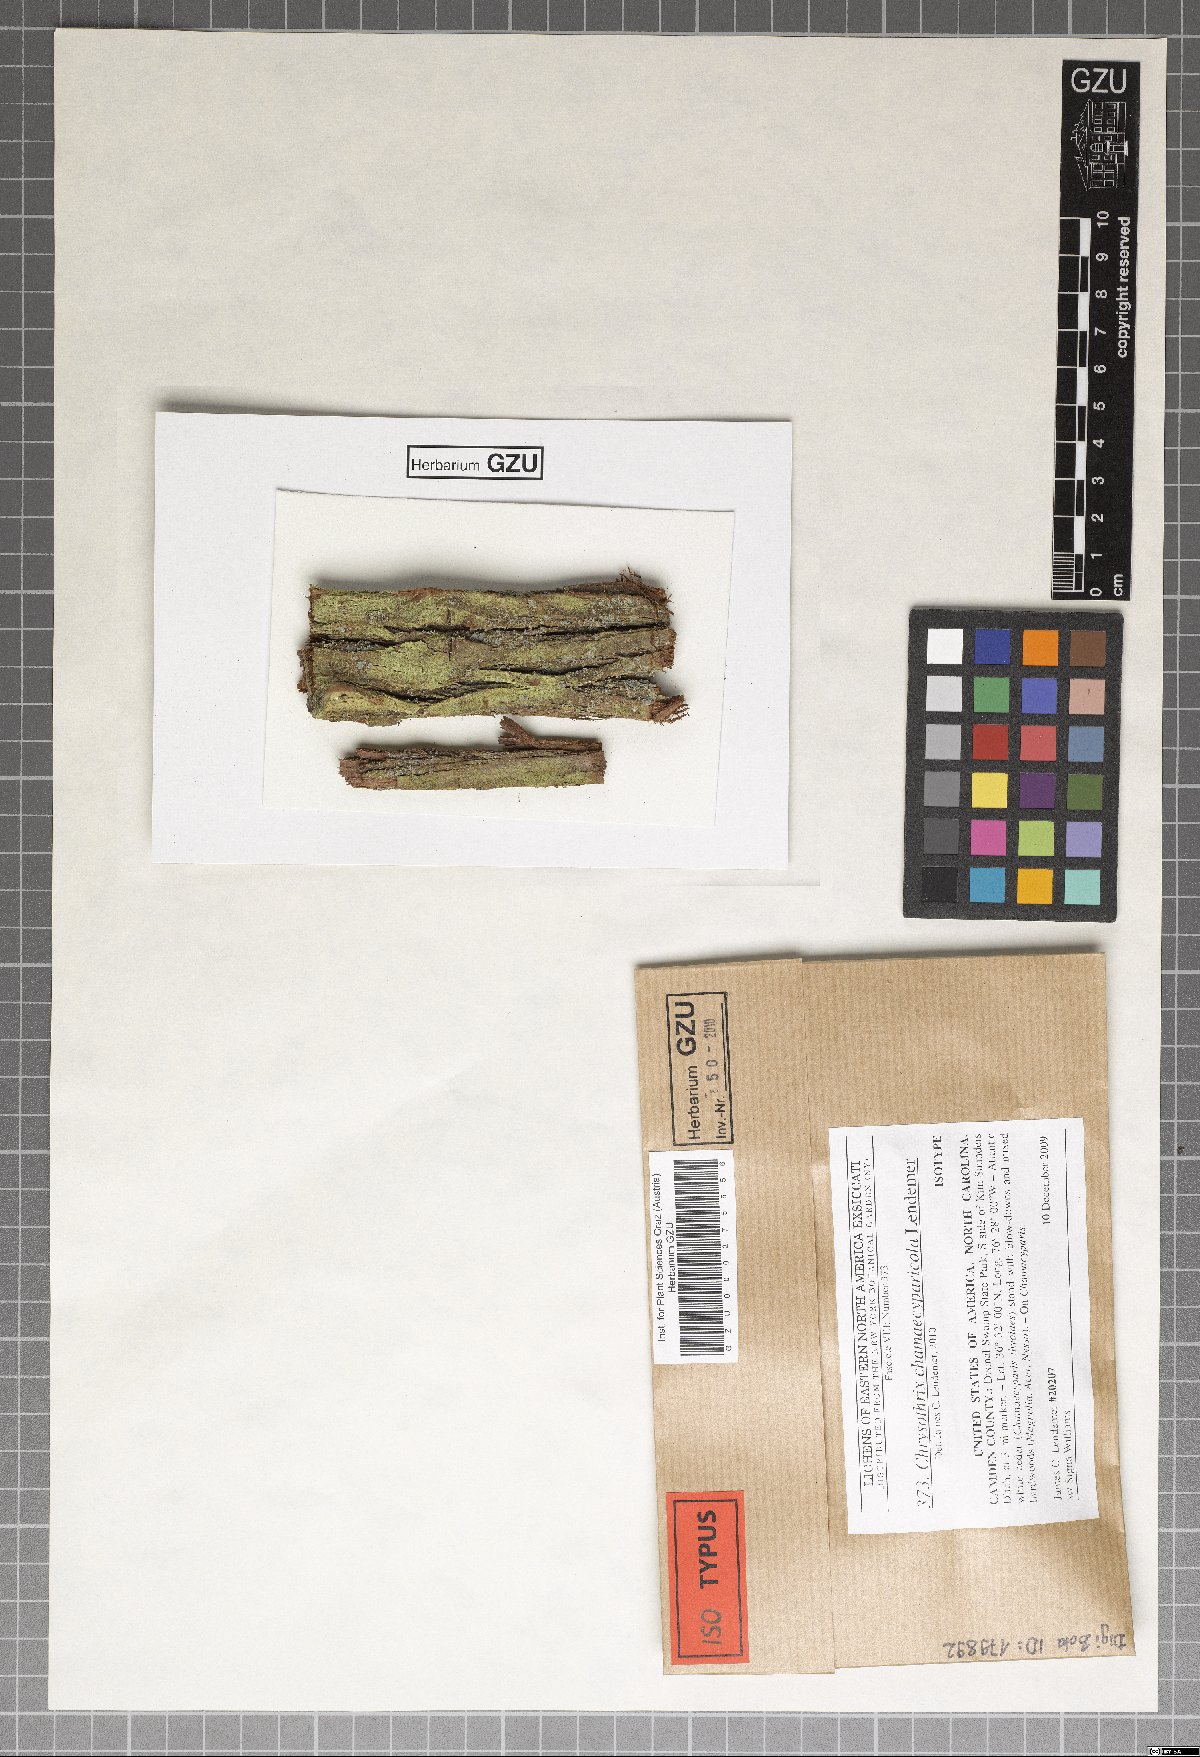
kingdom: Fungi
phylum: Ascomycota
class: Arthoniomycetes
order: Arthoniales
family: Chrysotrichaceae
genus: Chrysothrix
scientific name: Chrysothrix chamaecyparicola
